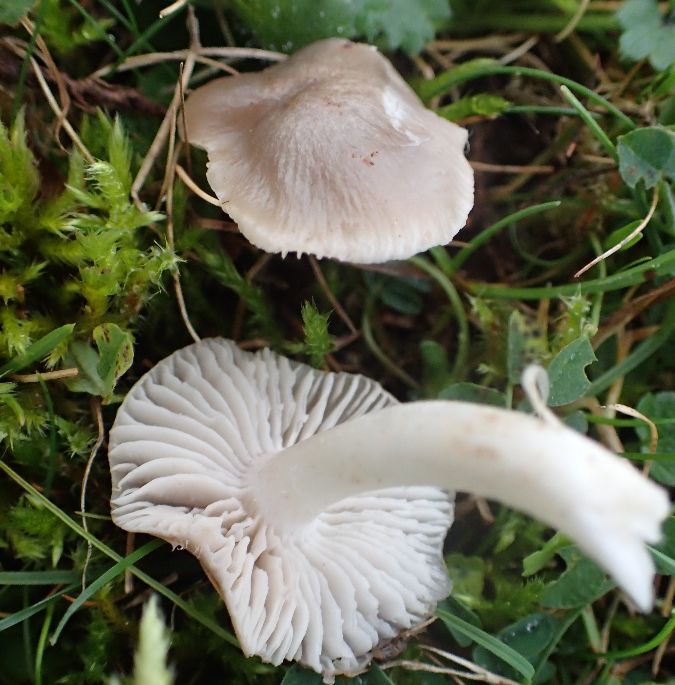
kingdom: Fungi
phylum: Basidiomycota
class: Agaricomycetes
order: Agaricales
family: Hygrophoraceae
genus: Cuphophyllus
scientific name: Cuphophyllus fornicatus
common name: gråbrun vokshat
